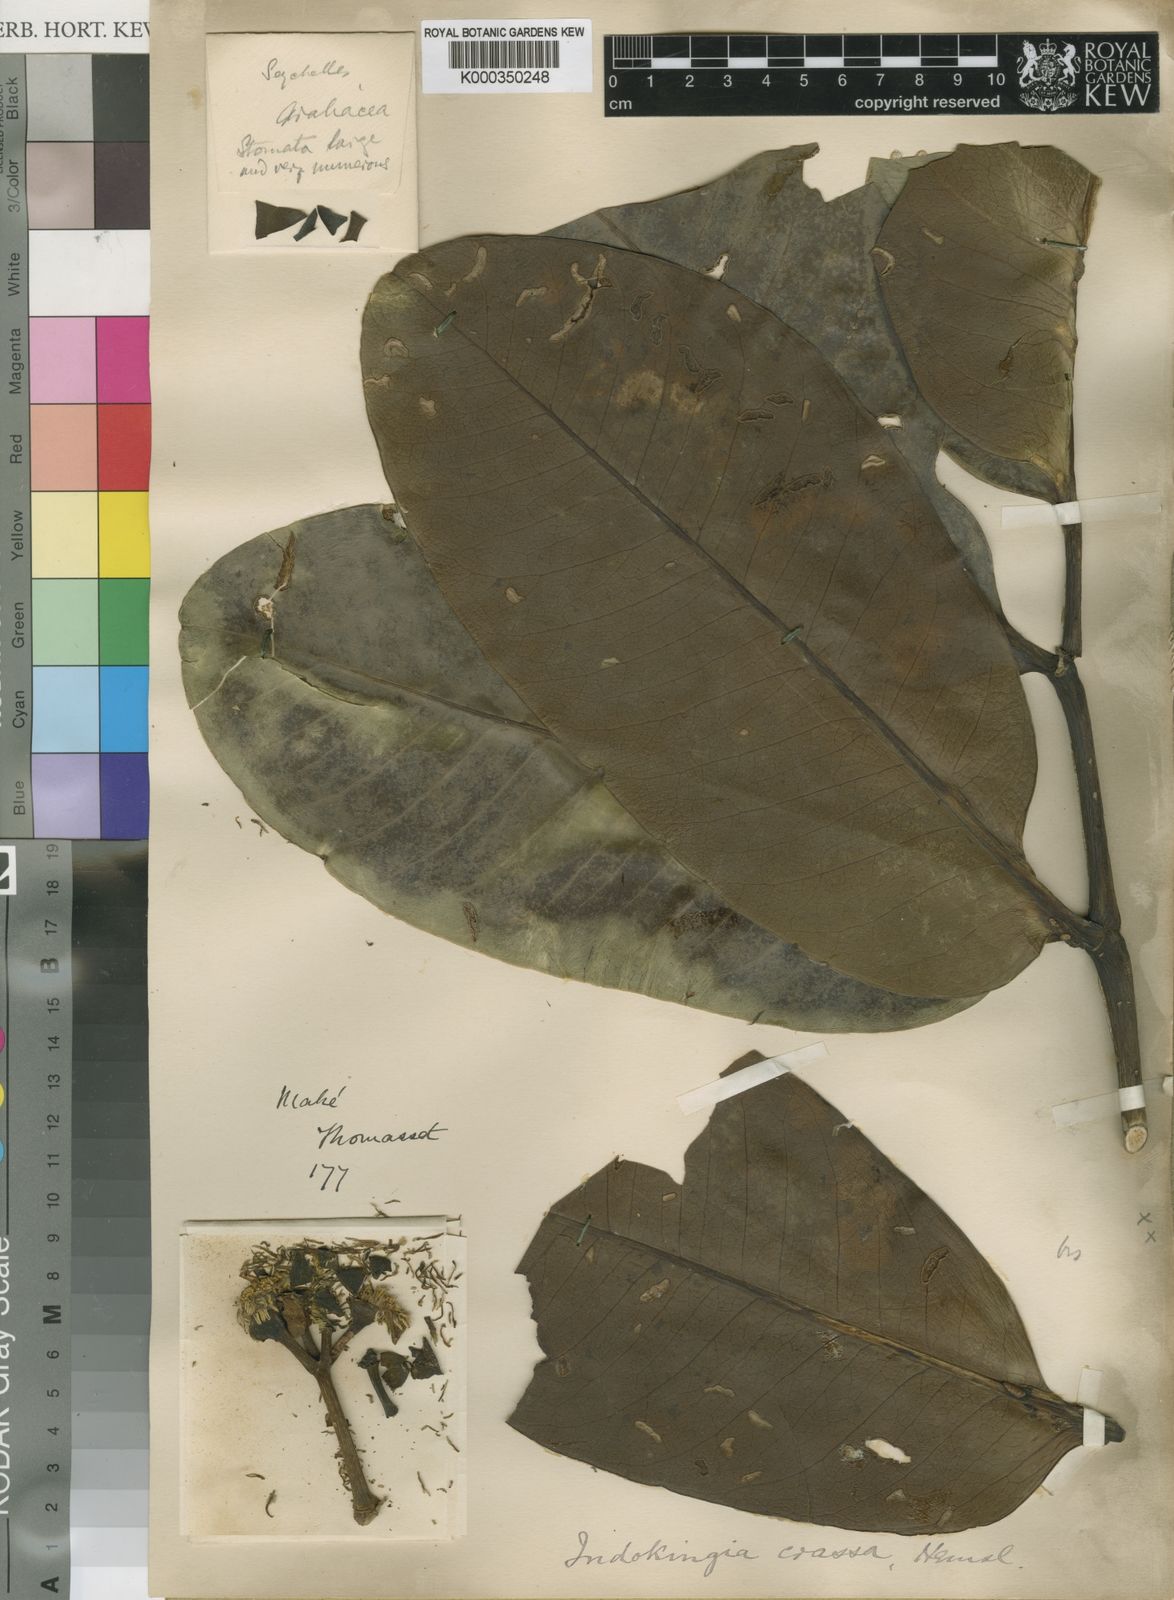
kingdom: Plantae
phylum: Tracheophyta
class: Magnoliopsida
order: Apiales
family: Araliaceae
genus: Polyscias
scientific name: Polyscias crassa
